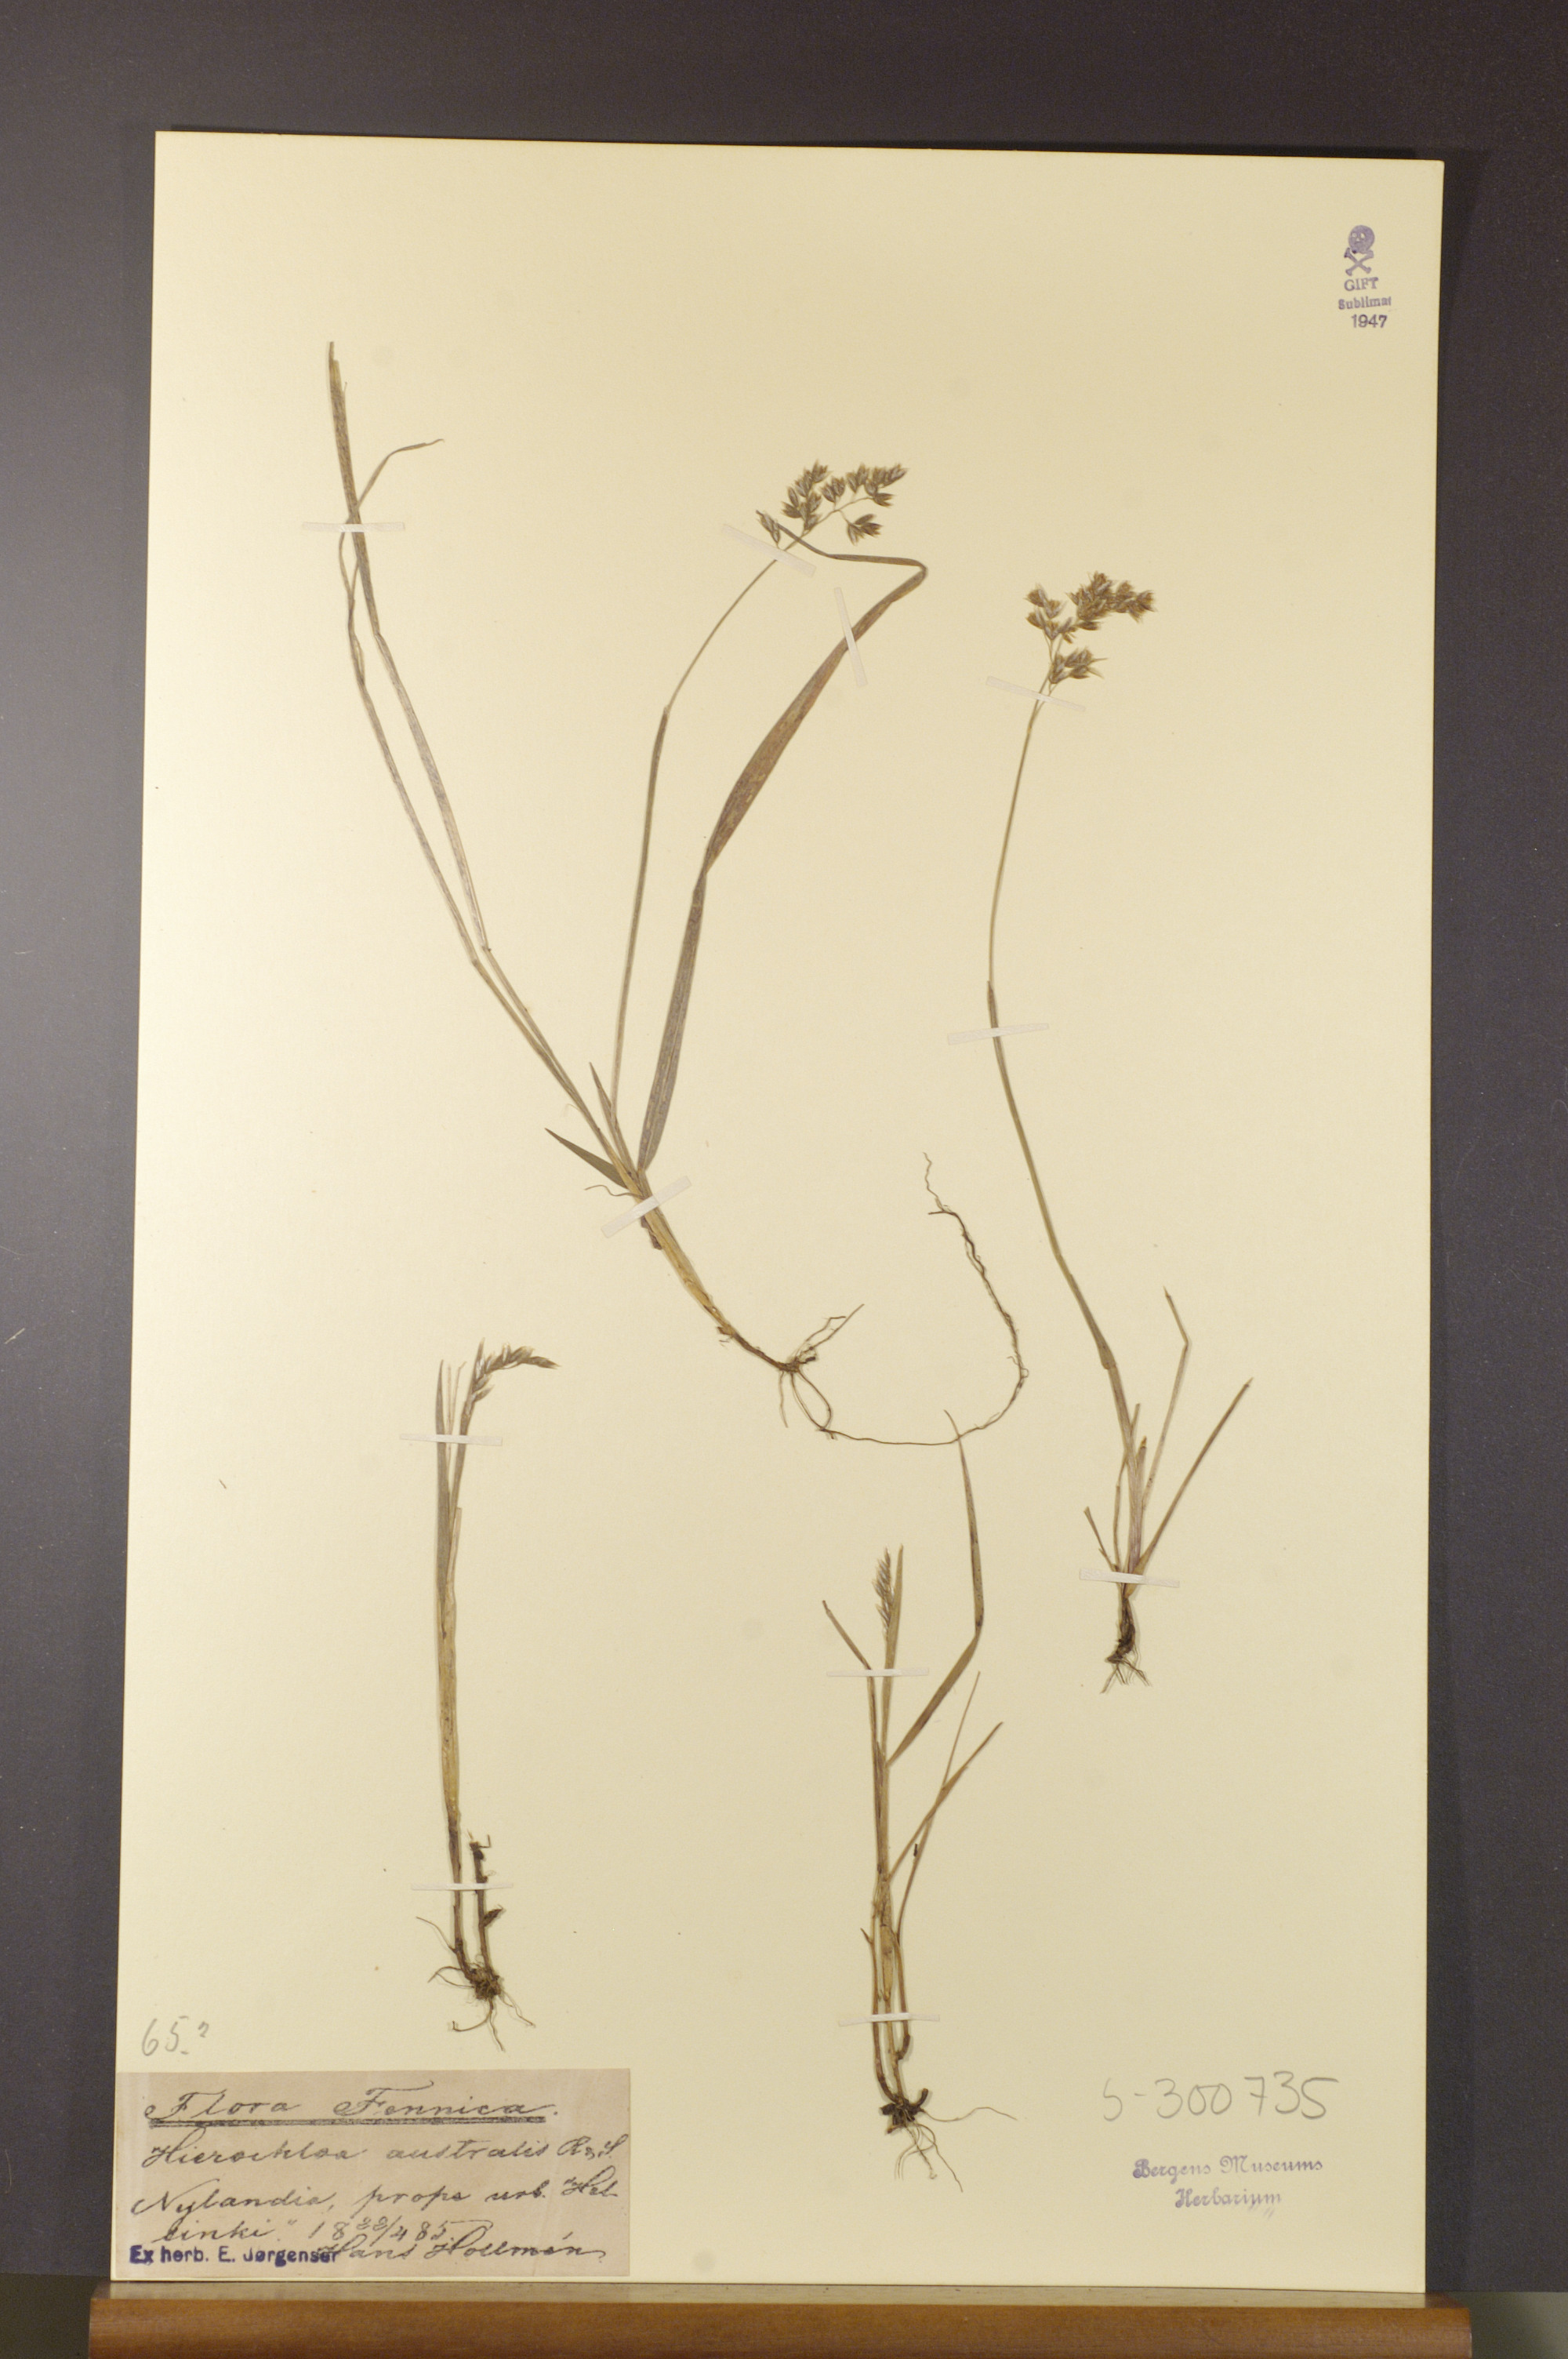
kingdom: Plantae
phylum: Tracheophyta
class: Liliopsida
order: Poales
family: Poaceae
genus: Anthoxanthum
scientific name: Anthoxanthum australe
